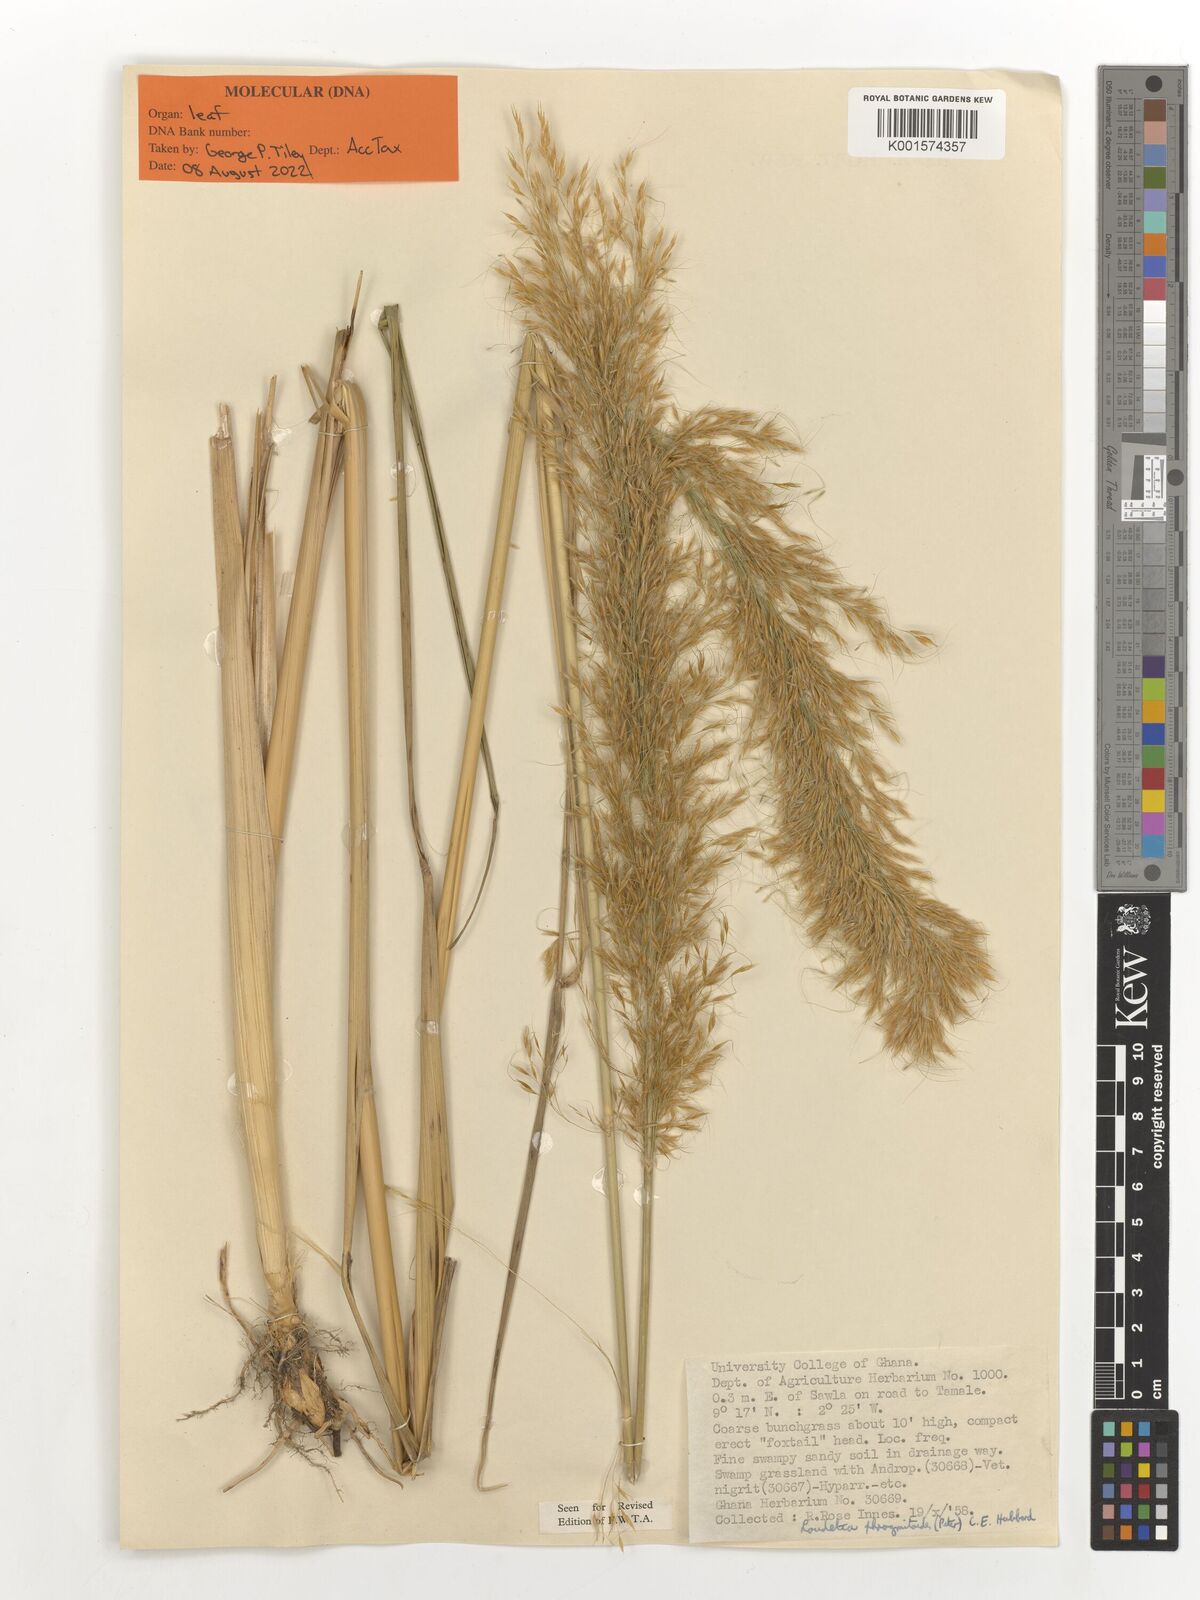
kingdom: Plantae
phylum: Tracheophyta
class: Liliopsida
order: Poales
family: Poaceae
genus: Loudetia
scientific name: Loudetia phragmitoides
